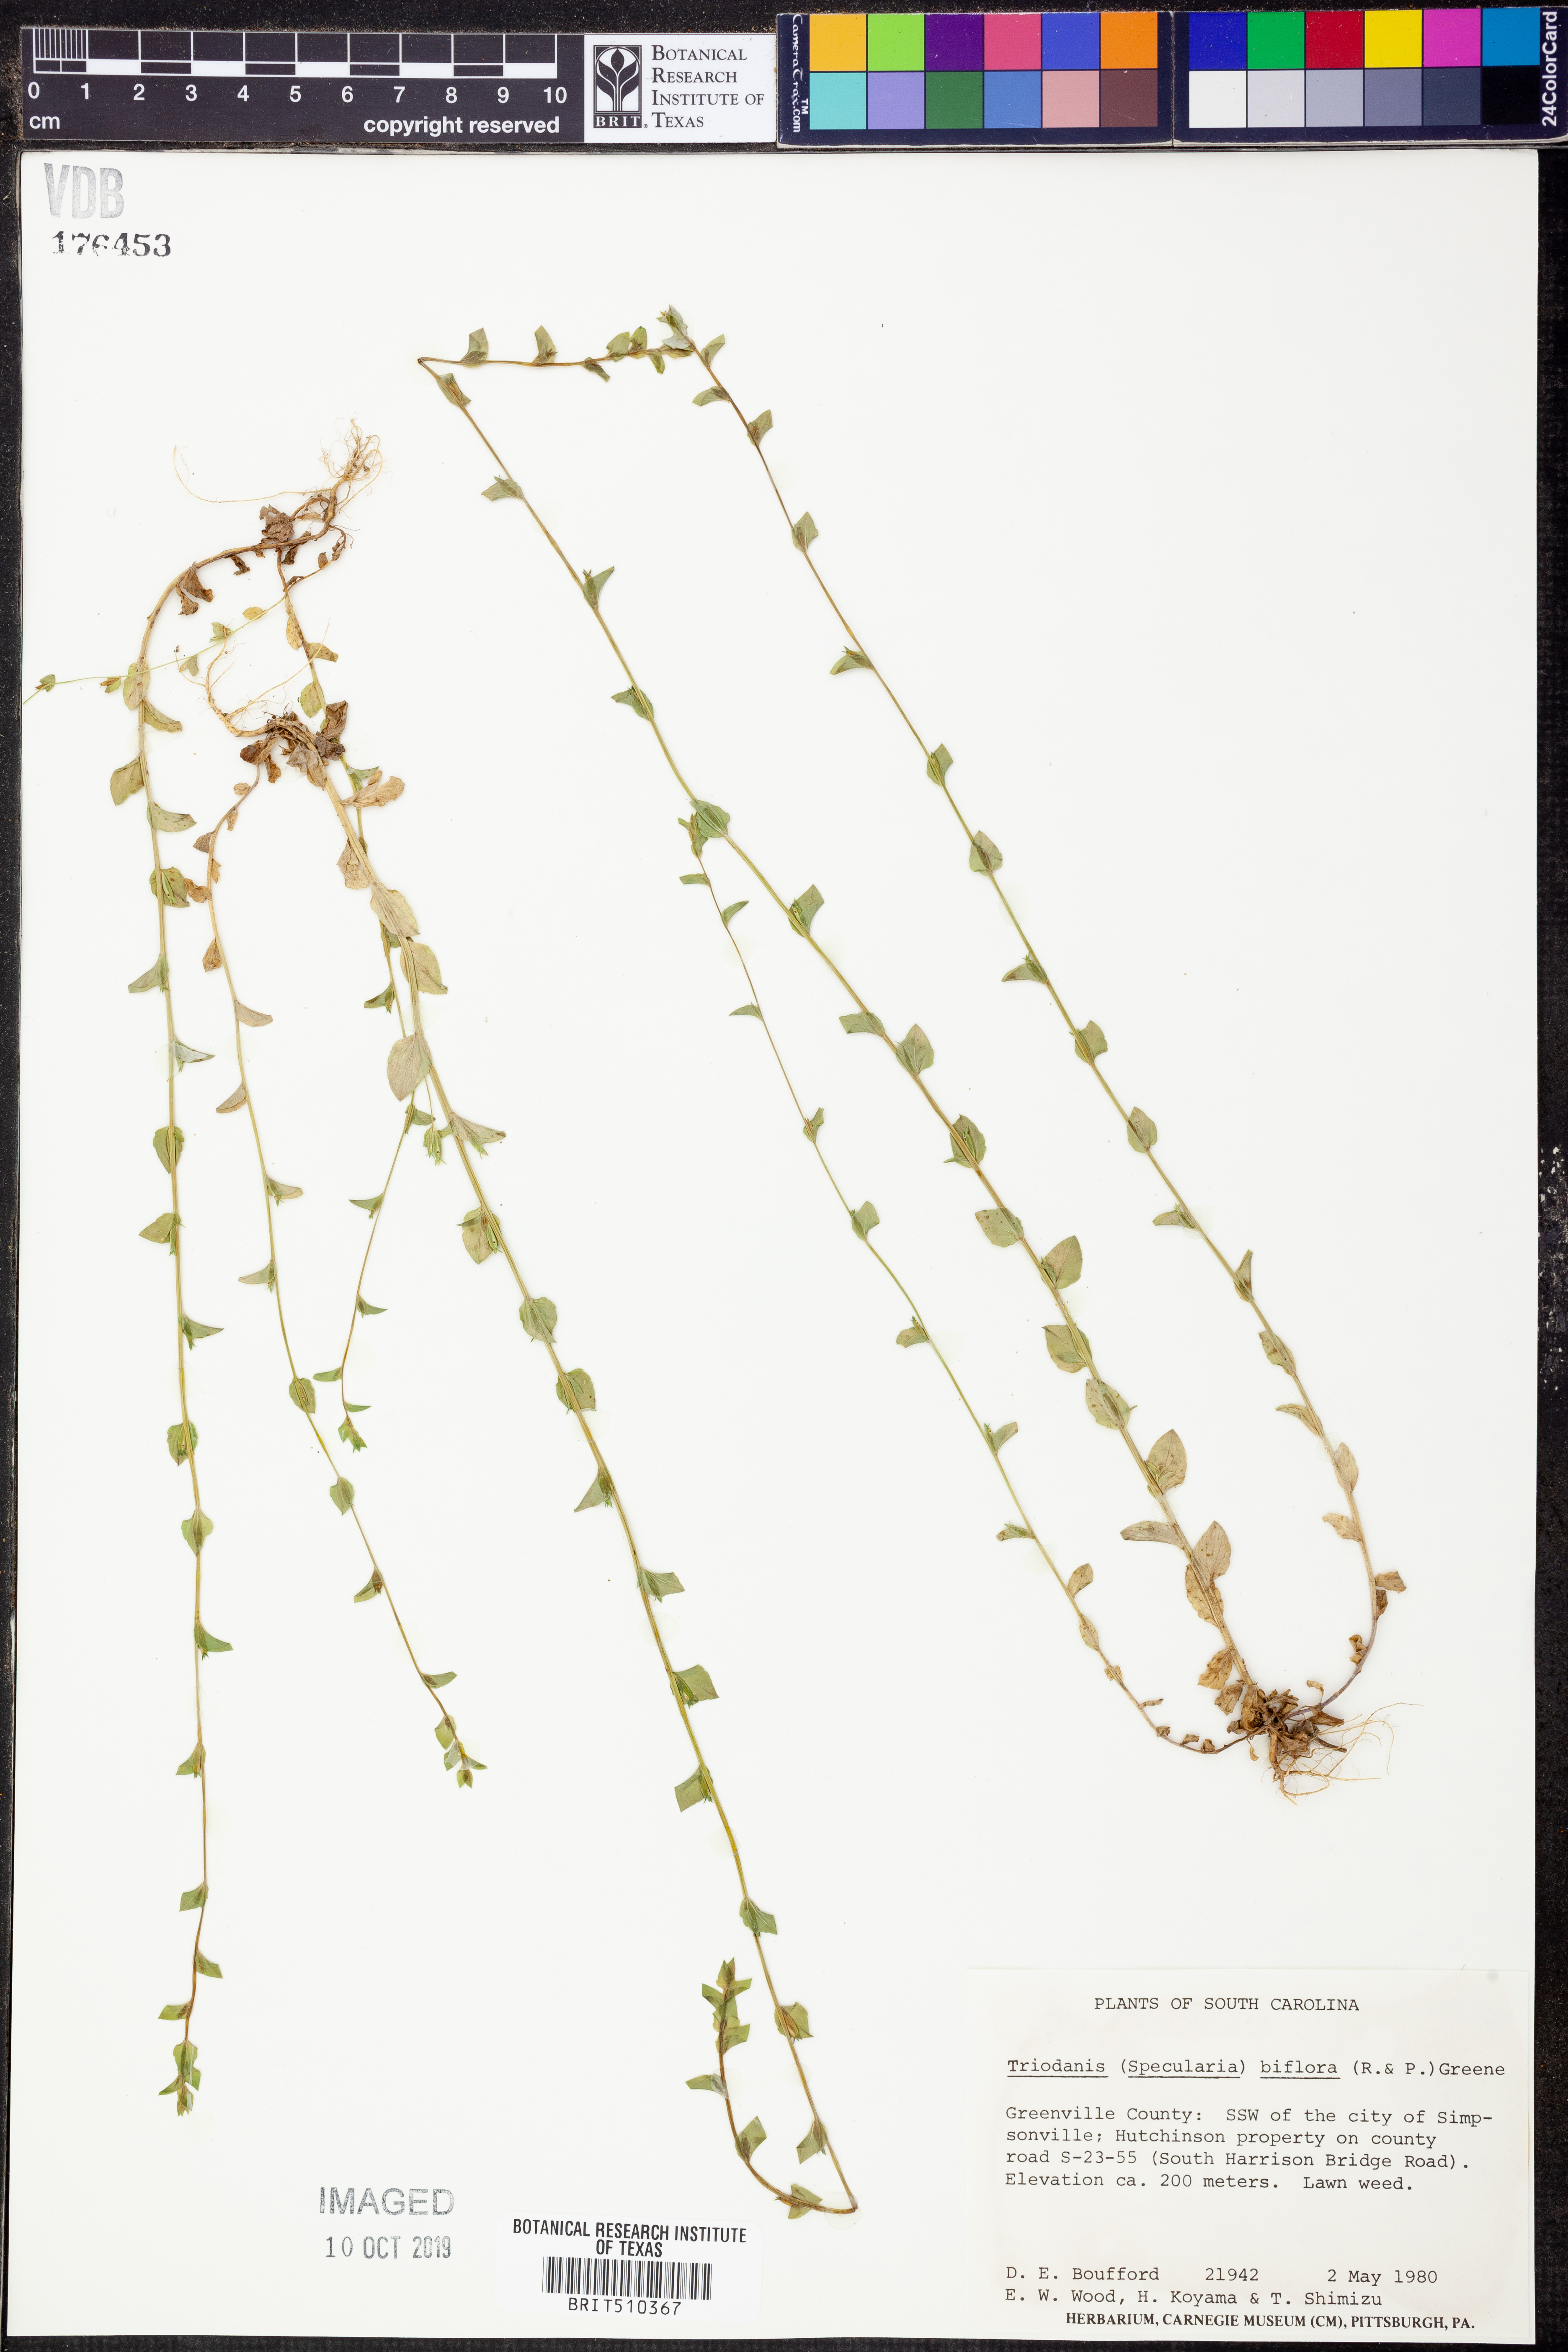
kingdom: Plantae
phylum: Tracheophyta
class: Magnoliopsida
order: Asterales
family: Campanulaceae
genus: Triodanis
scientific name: Triodanis perfoliata
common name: Clasping venus' looking-glass
